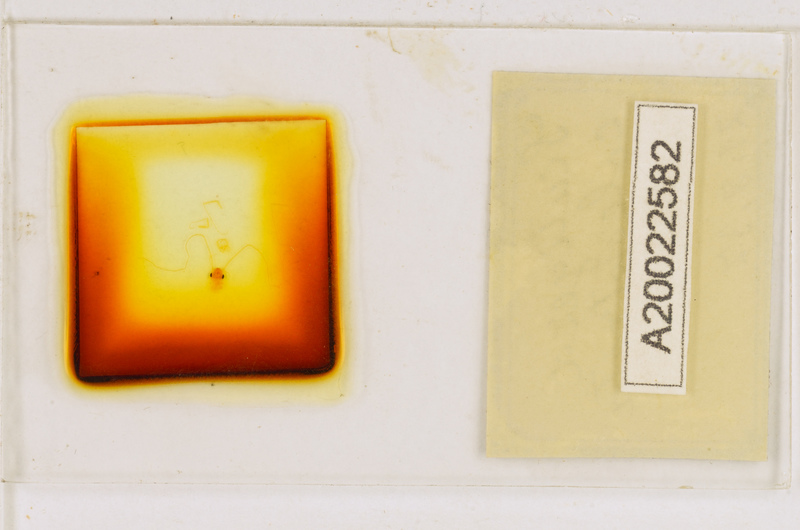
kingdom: Animalia
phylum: Arthropoda
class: Chilopoda
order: Scutigeromorpha
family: Scutigeridae
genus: Scutigera
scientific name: Scutigera coleoptrata
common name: House centipede
